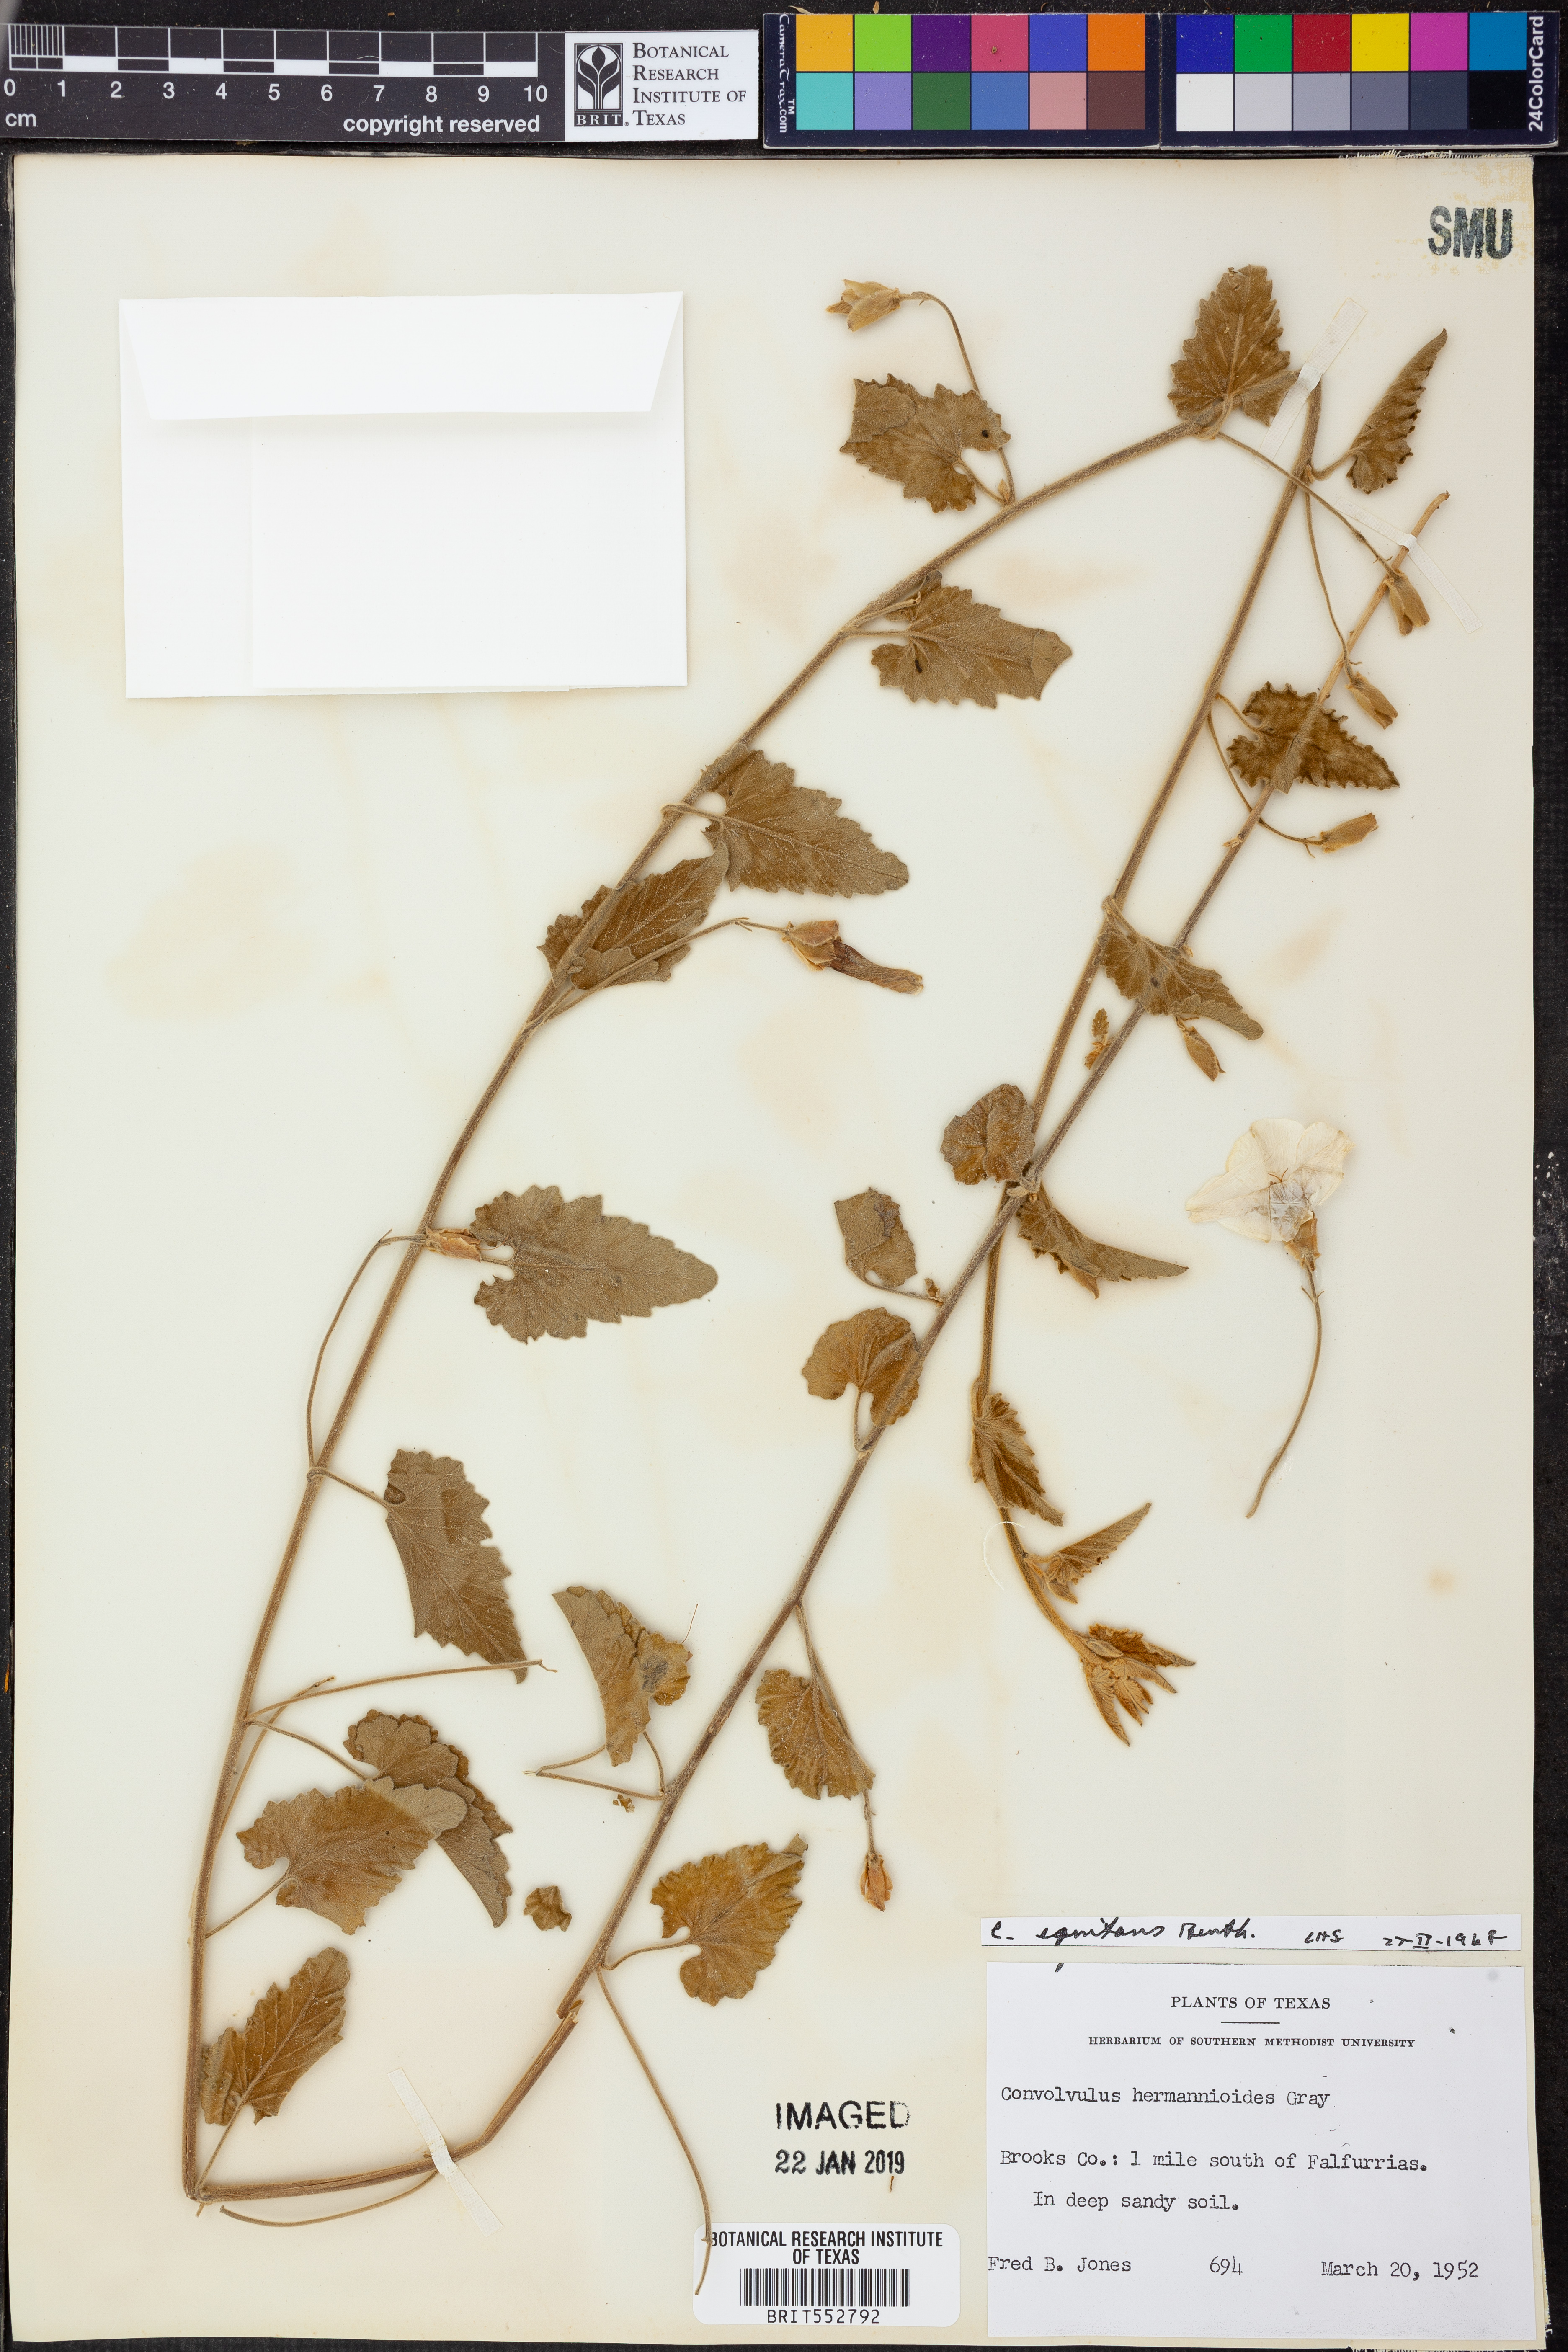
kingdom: Plantae
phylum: Tracheophyta
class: Magnoliopsida
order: Solanales
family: Convolvulaceae
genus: Convolvulus
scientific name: Convolvulus equitans
